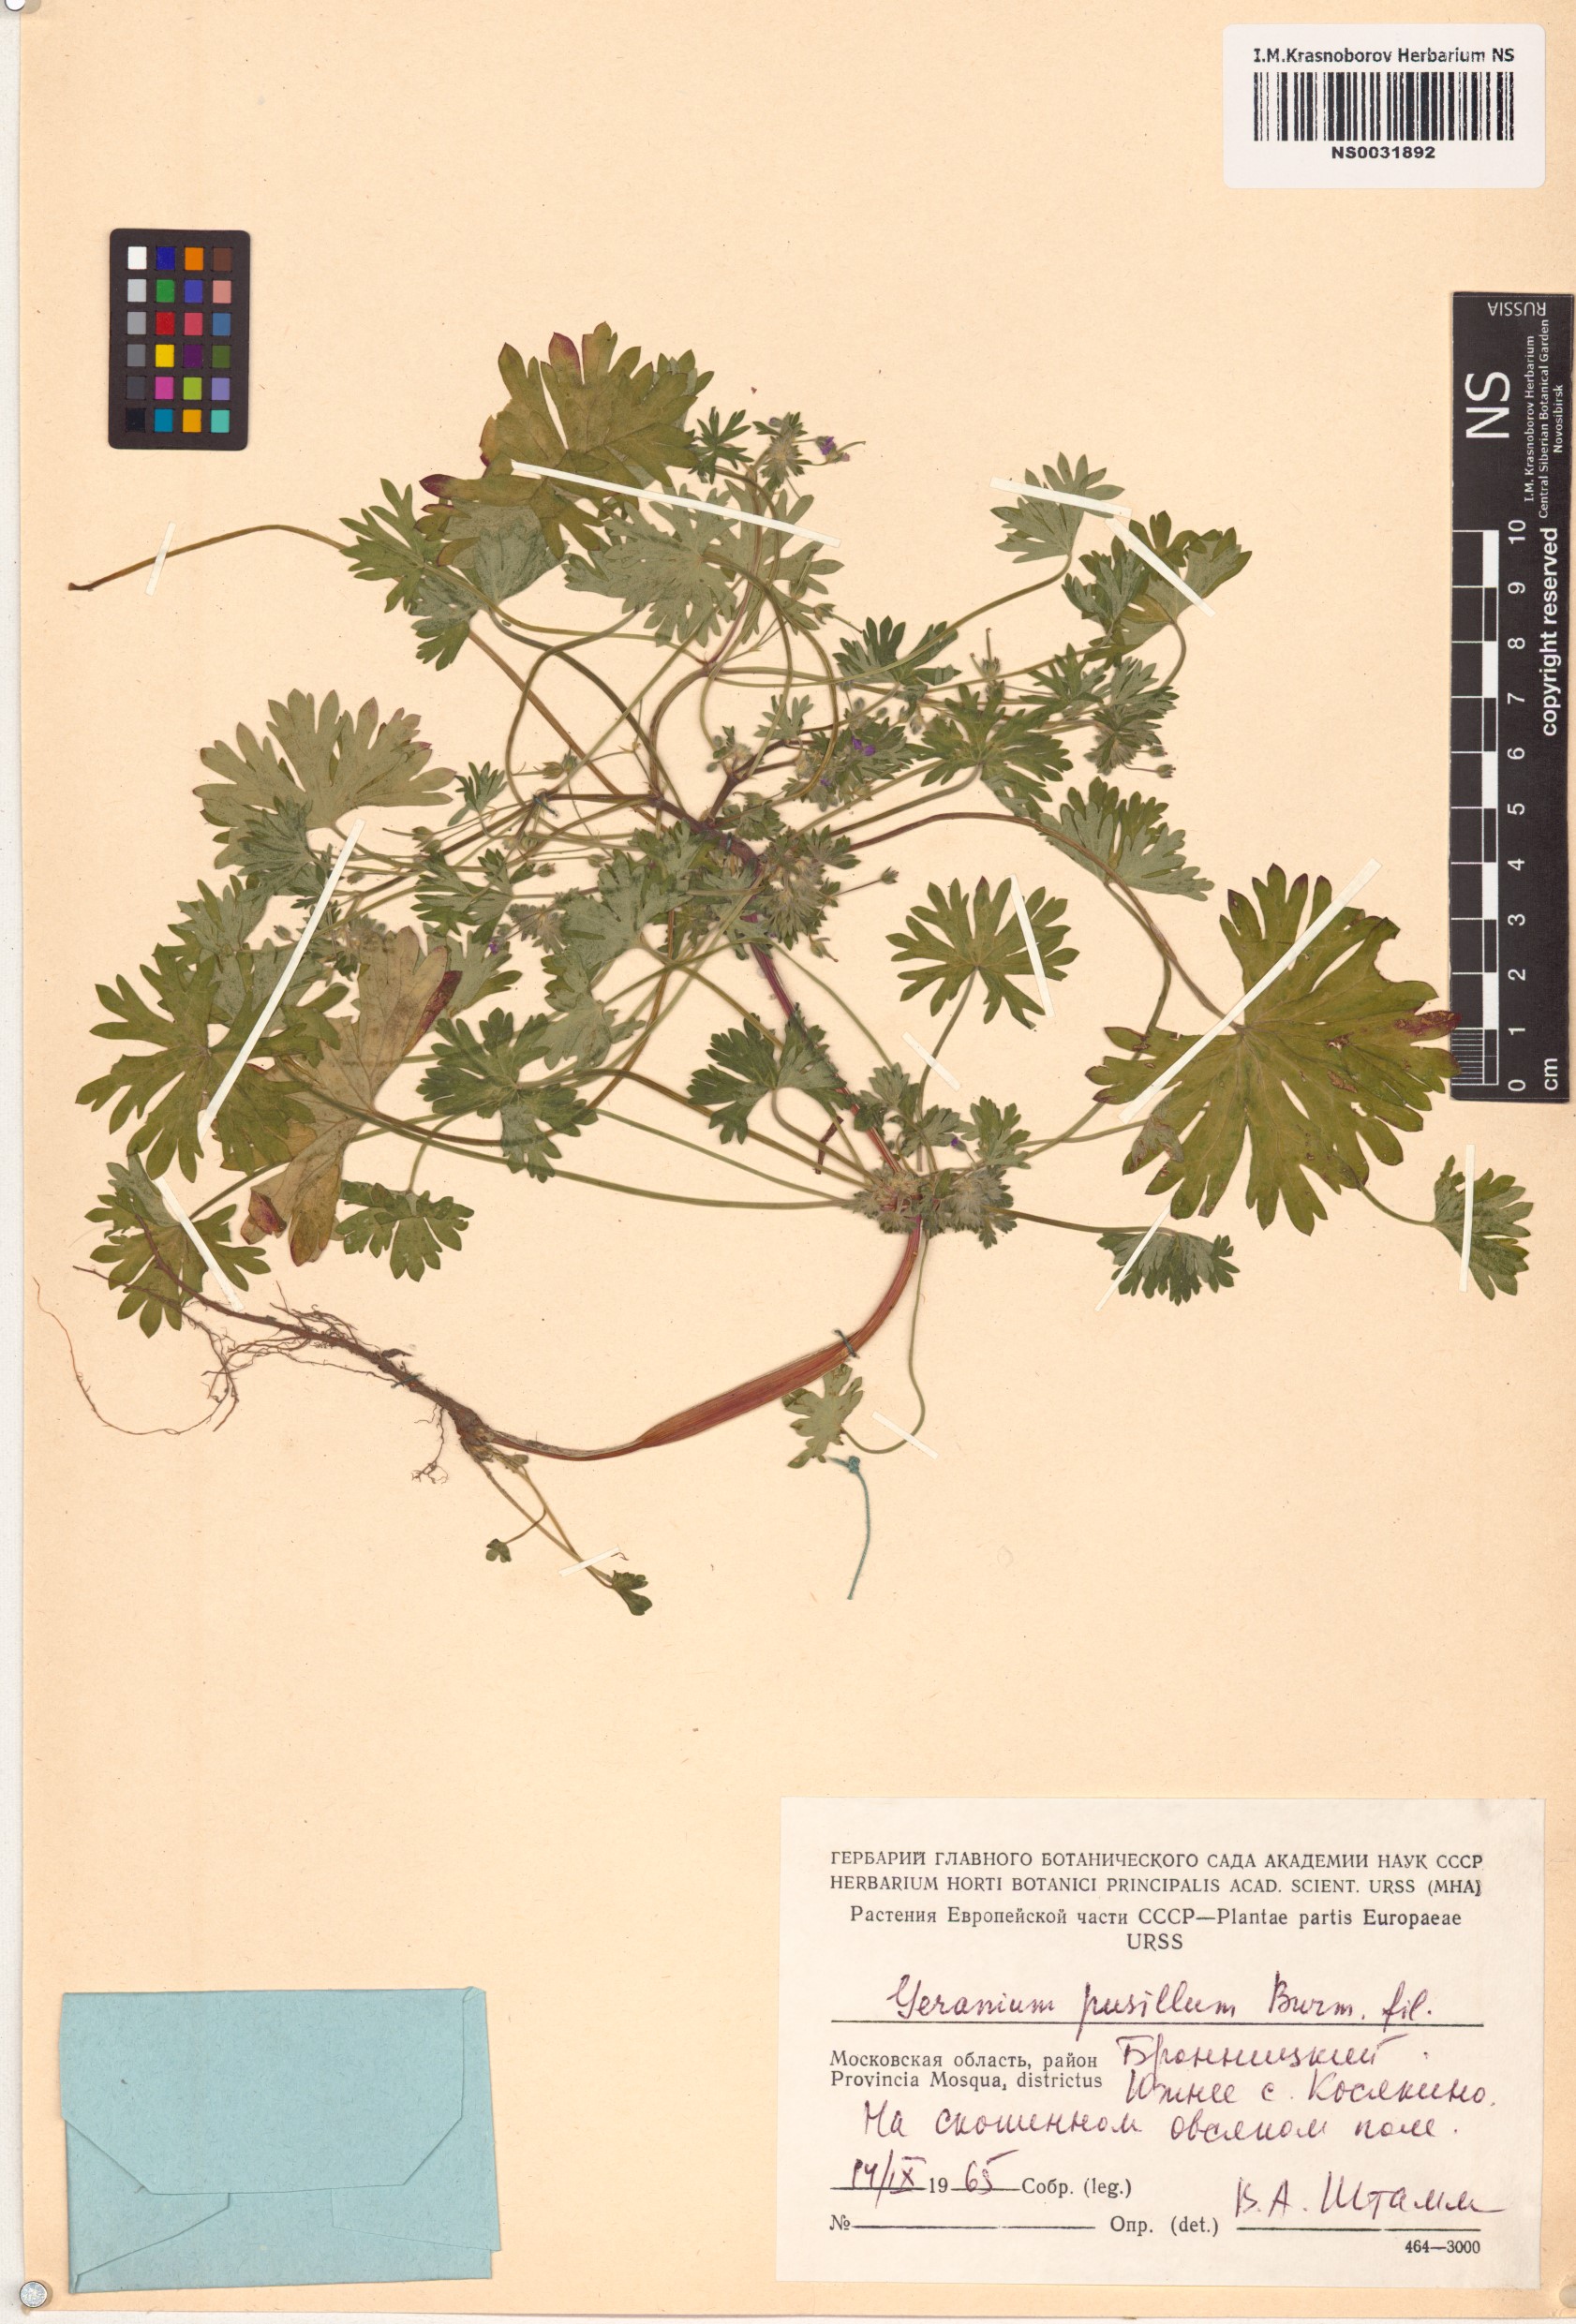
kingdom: Plantae
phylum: Tracheophyta
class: Magnoliopsida
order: Geraniales
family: Geraniaceae
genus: Geranium
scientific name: Geranium pusillum
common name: Small geranium
